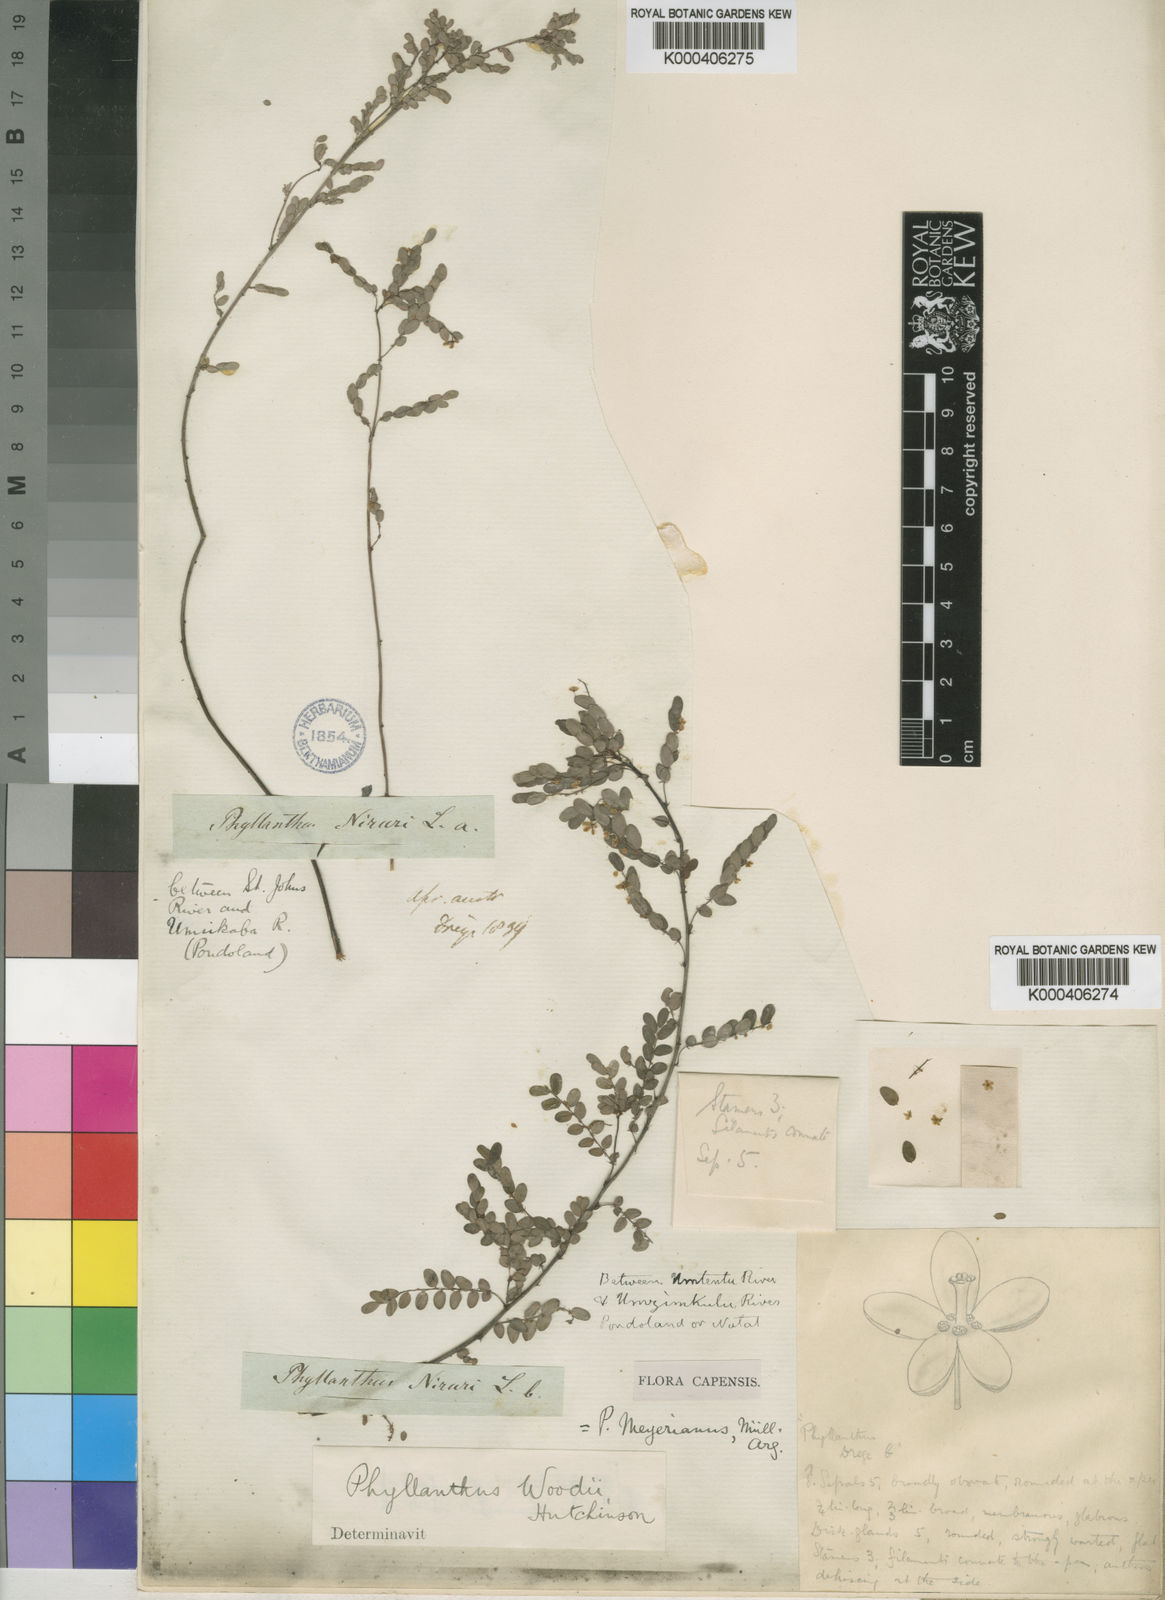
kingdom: Plantae
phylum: Tracheophyta
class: Magnoliopsida
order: Malpighiales
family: Phyllanthaceae
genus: Phyllanthus
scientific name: Phyllanthus
